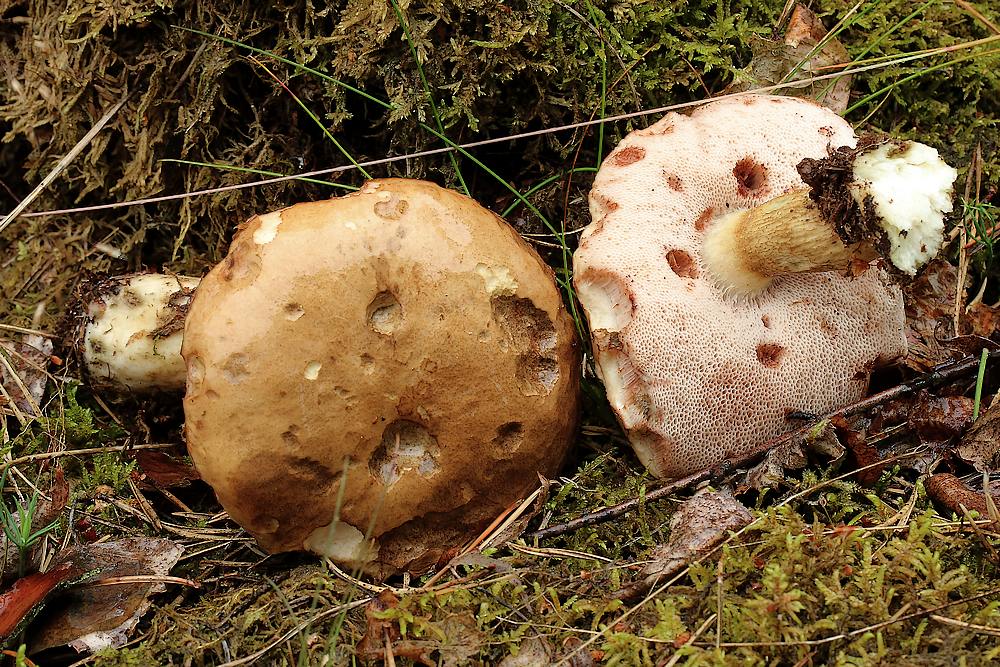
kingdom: Fungi
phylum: Basidiomycota
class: Agaricomycetes
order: Boletales
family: Boletaceae
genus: Tylopilus
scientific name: Tylopilus felleus
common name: galderørhat
